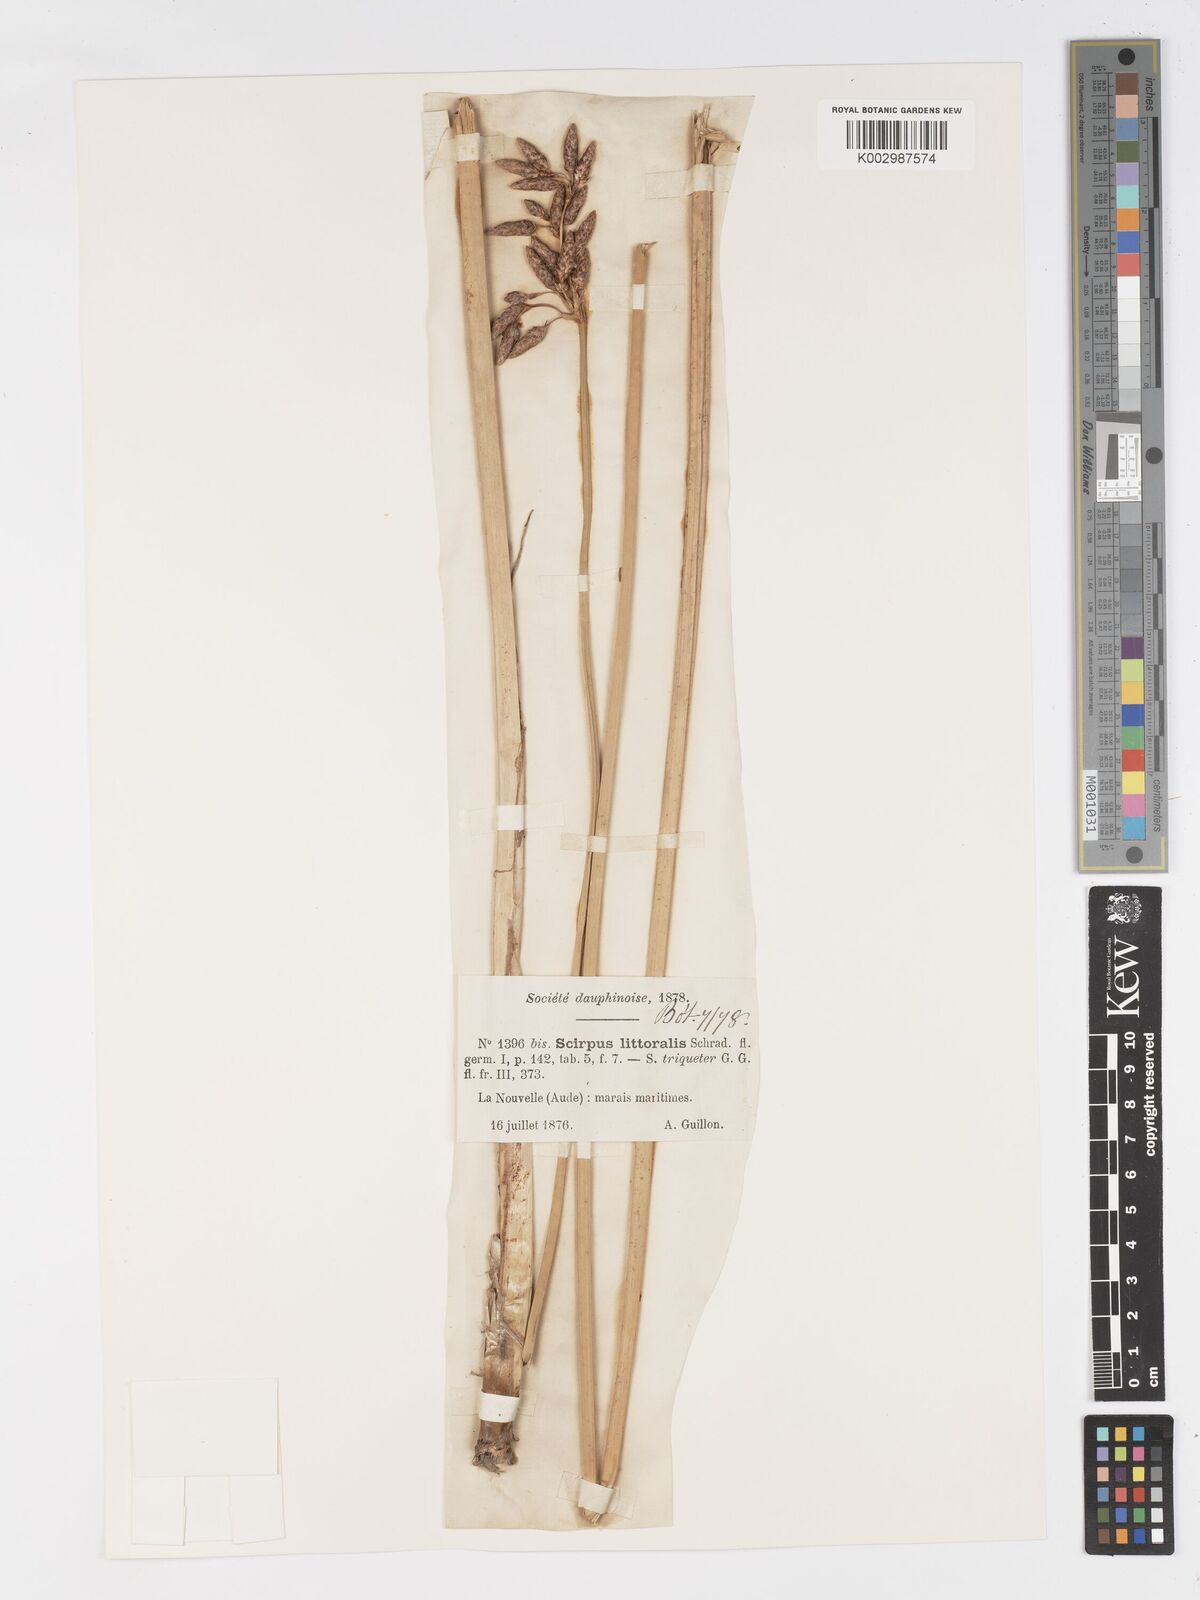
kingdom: Plantae
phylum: Tracheophyta
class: Liliopsida
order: Poales
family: Cyperaceae
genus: Schoenoplectus
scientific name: Schoenoplectus litoralis
